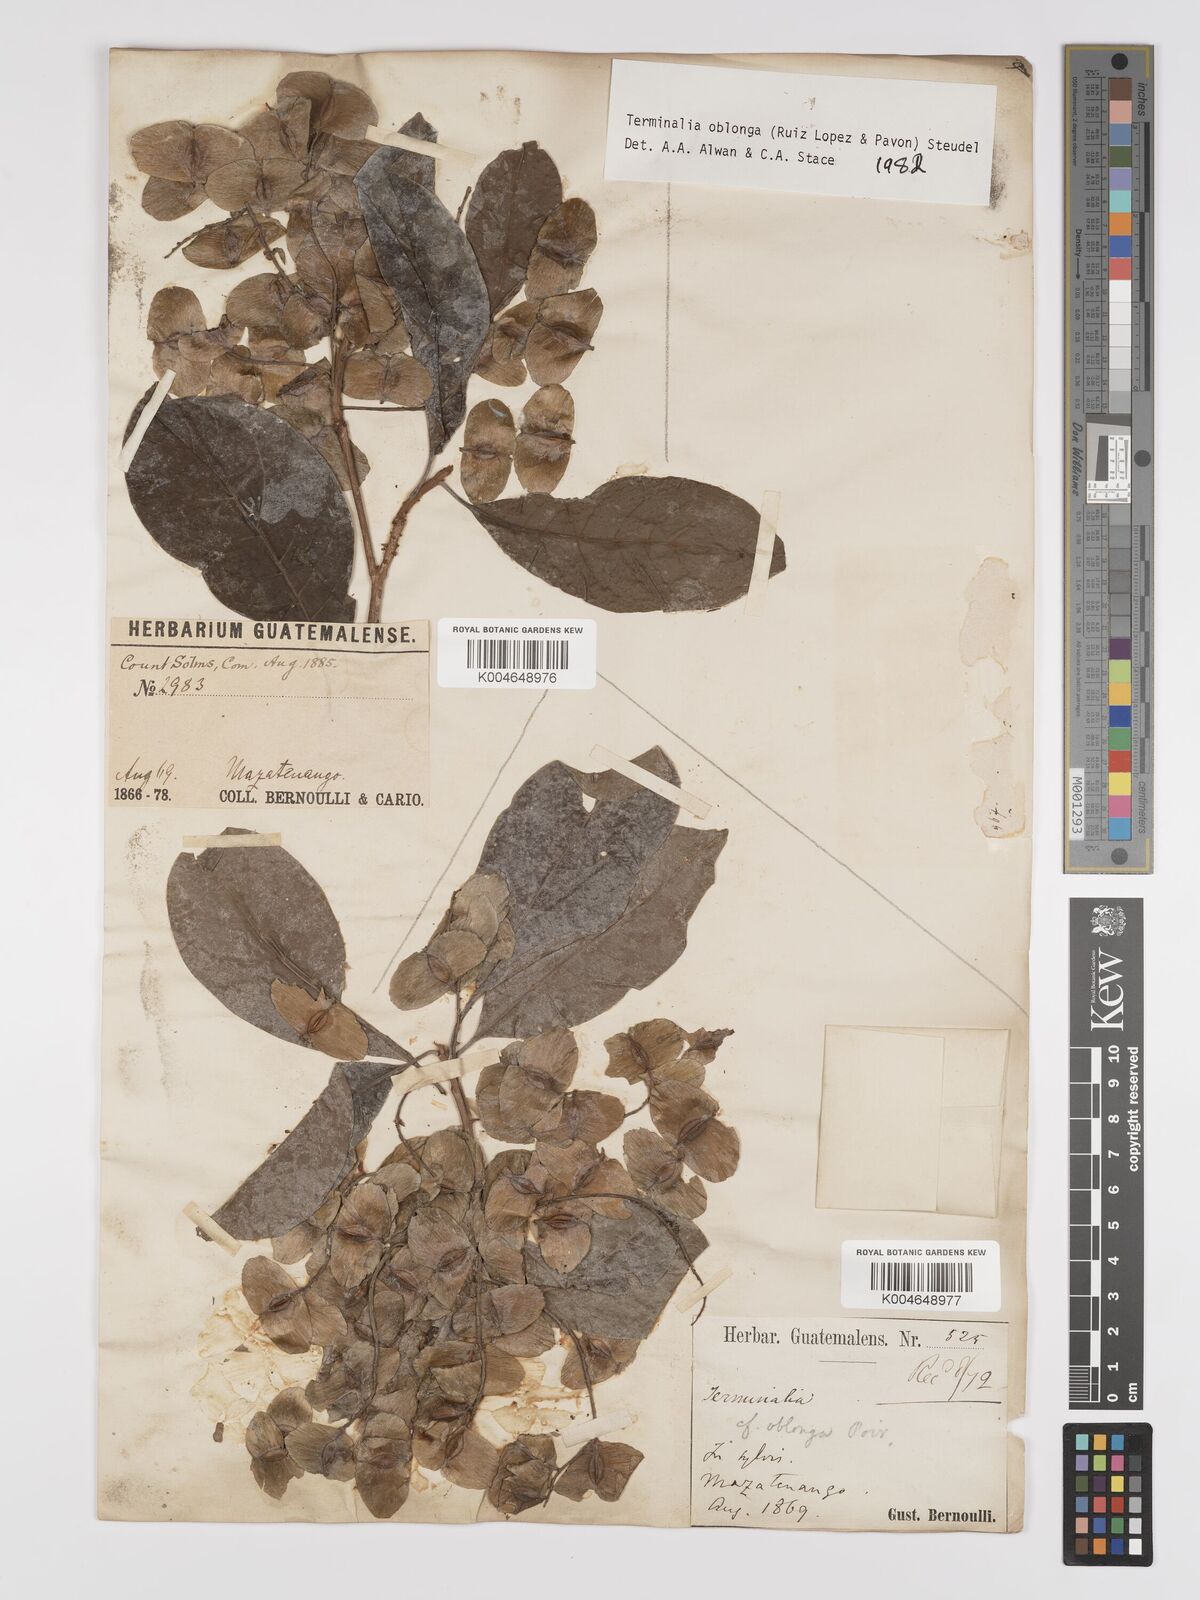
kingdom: Plantae
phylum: Tracheophyta
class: Magnoliopsida
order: Myrtales
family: Combretaceae
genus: Terminalia
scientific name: Terminalia oblonga
